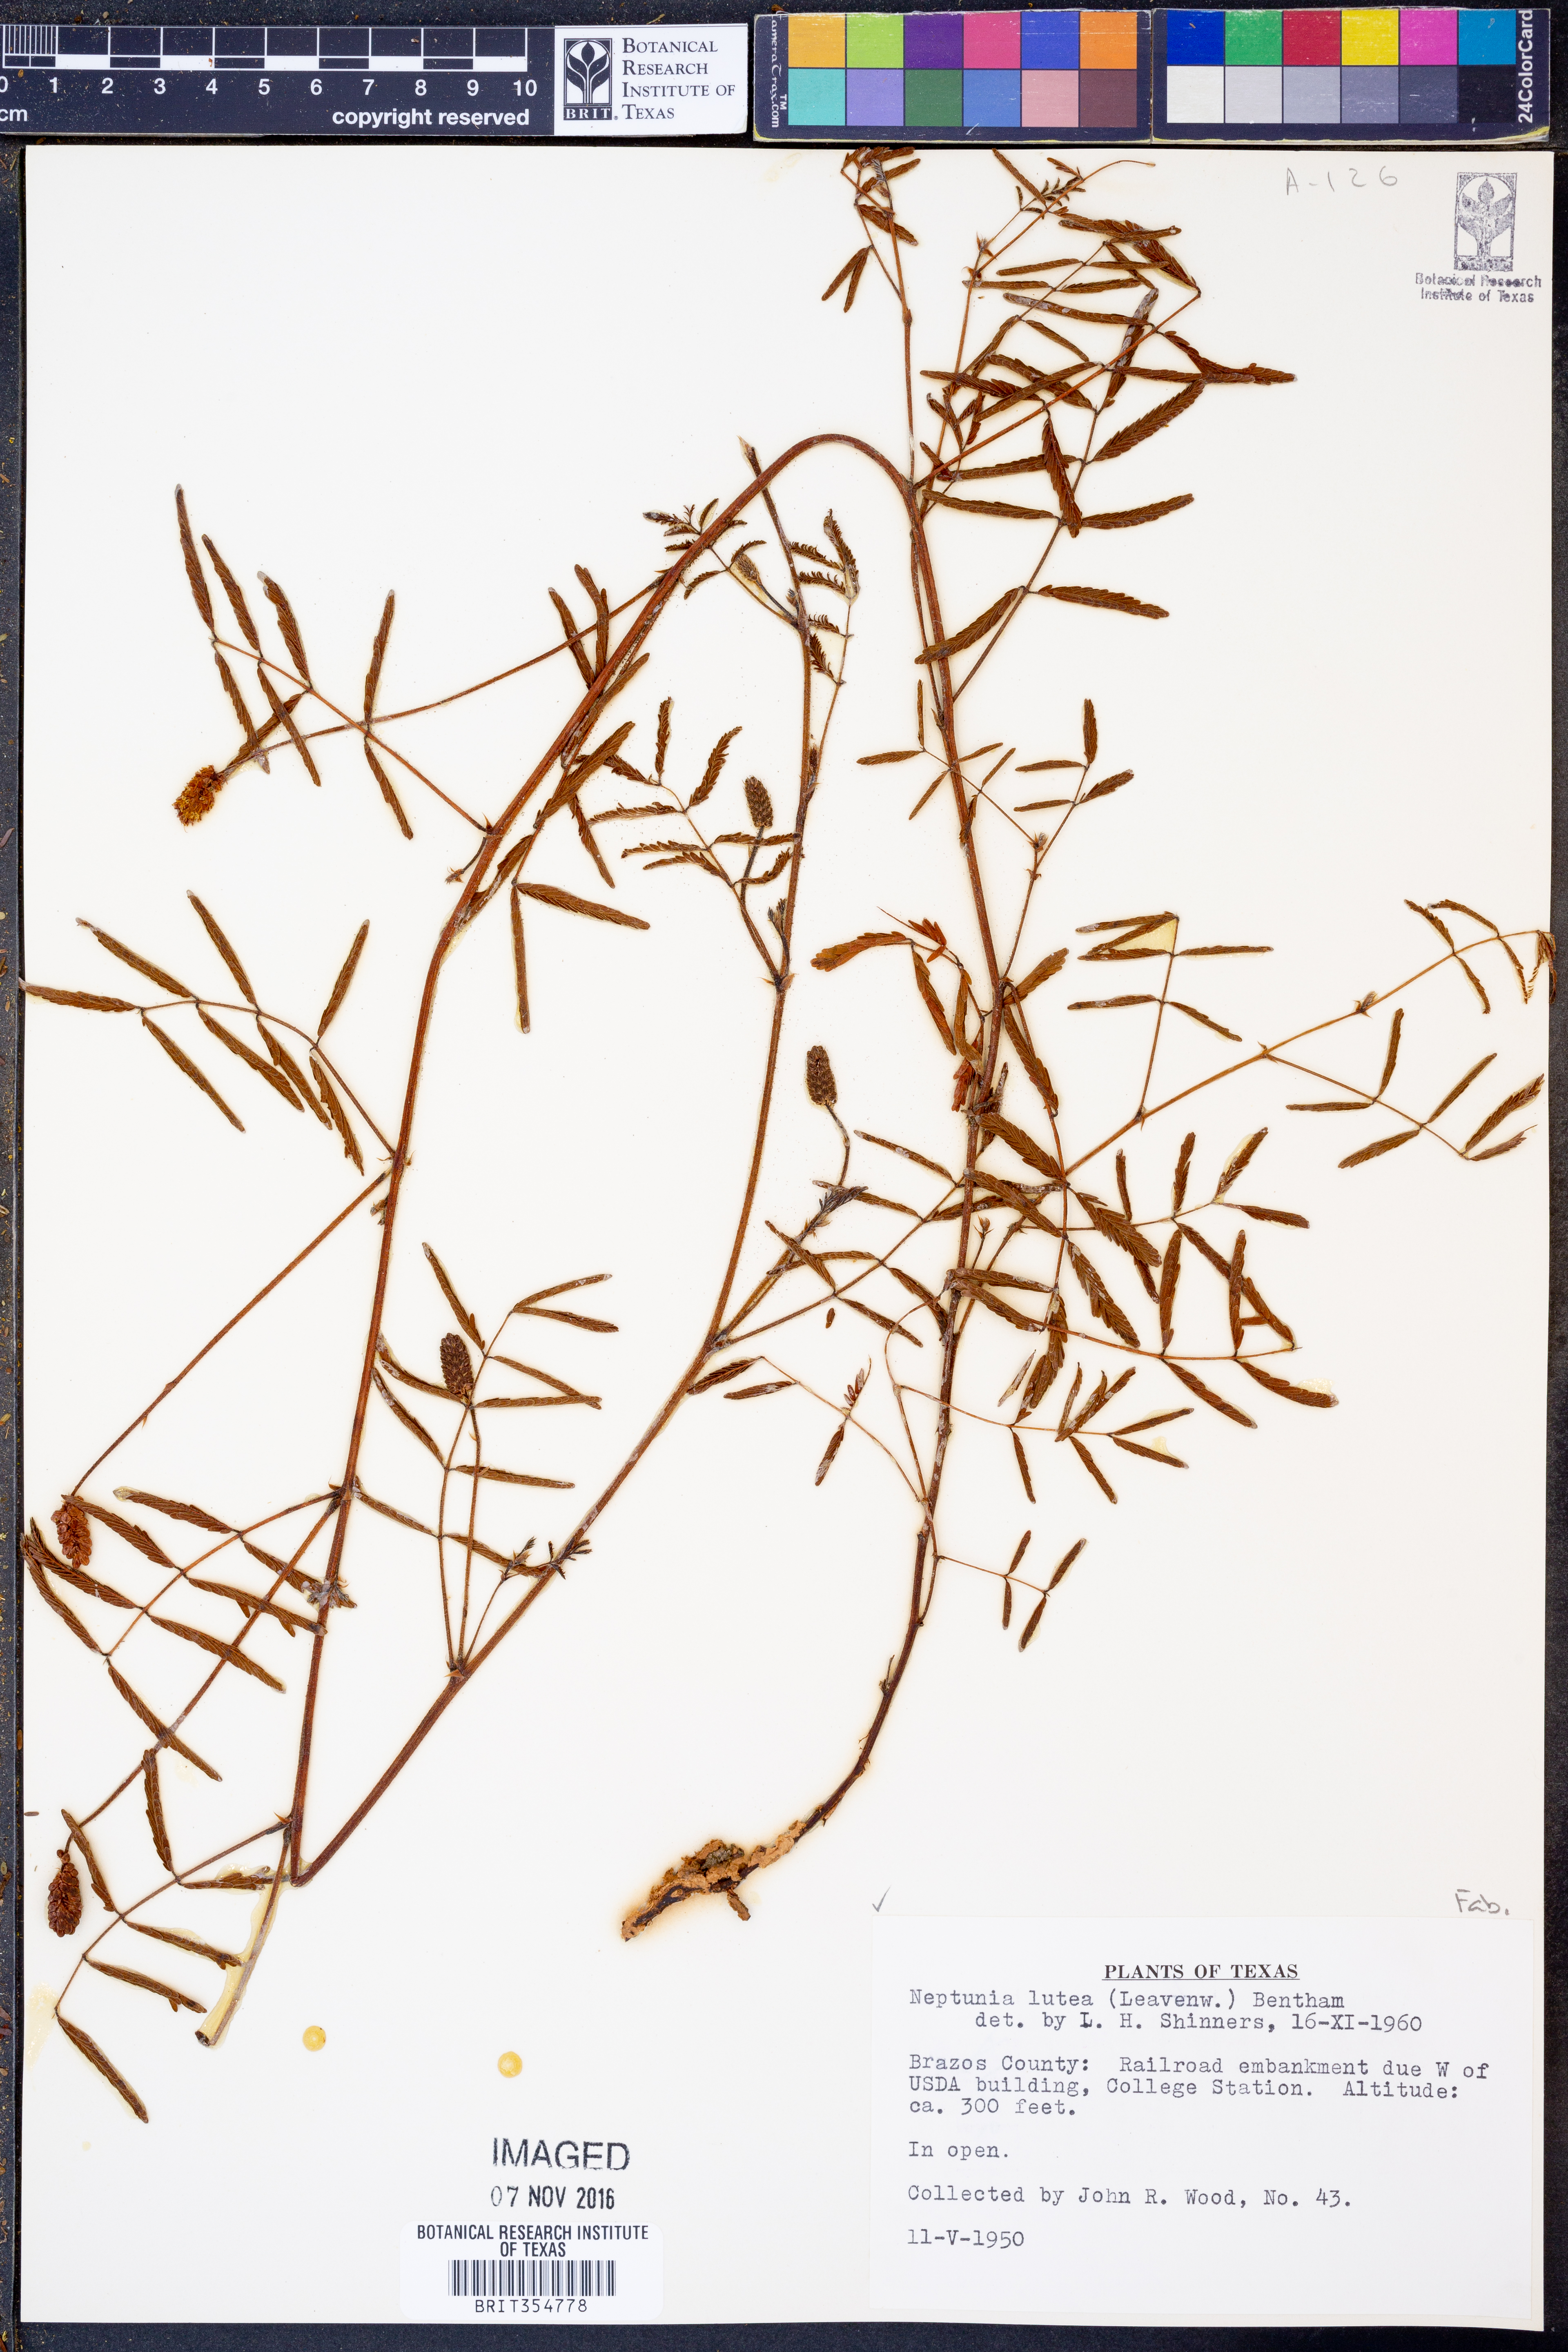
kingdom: Plantae
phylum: Tracheophyta
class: Magnoliopsida
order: Fabales
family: Fabaceae
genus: Neptunia
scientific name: Neptunia lutea
